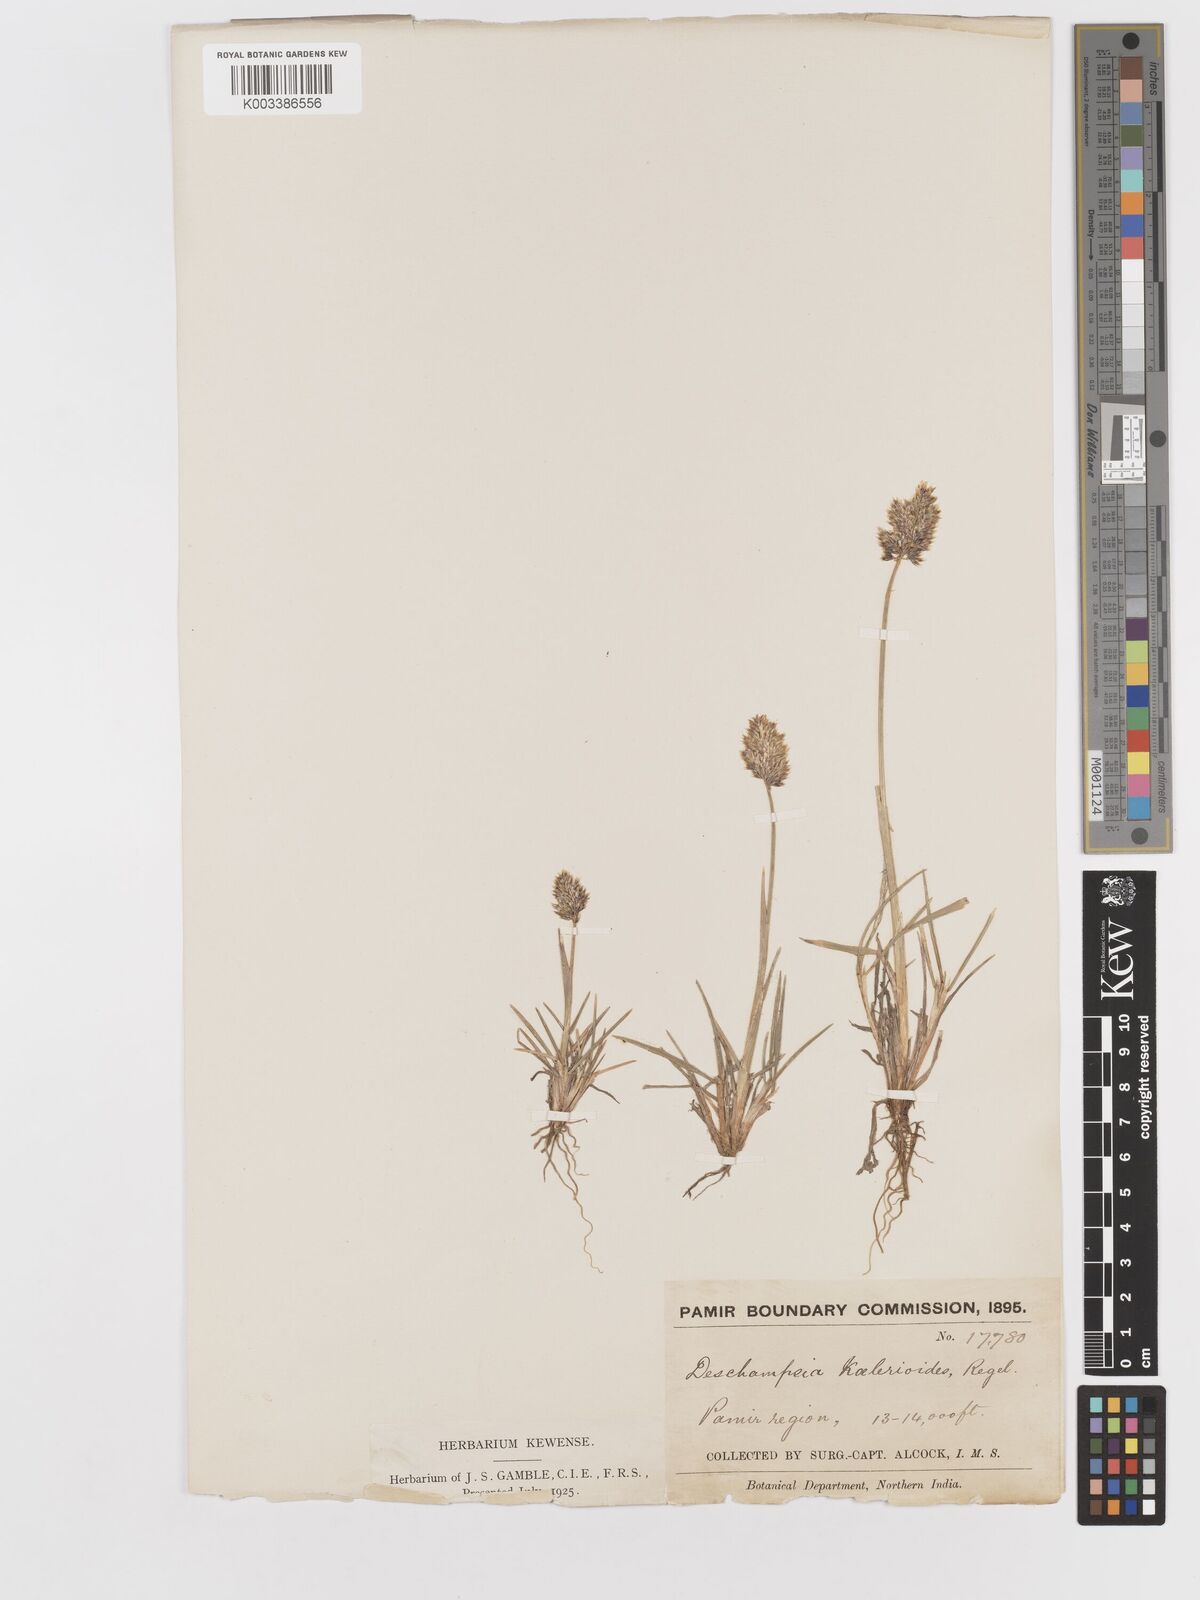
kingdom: Plantae
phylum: Tracheophyta
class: Liliopsida
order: Poales
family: Poaceae
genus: Deschampsia
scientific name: Deschampsia koelerioides
